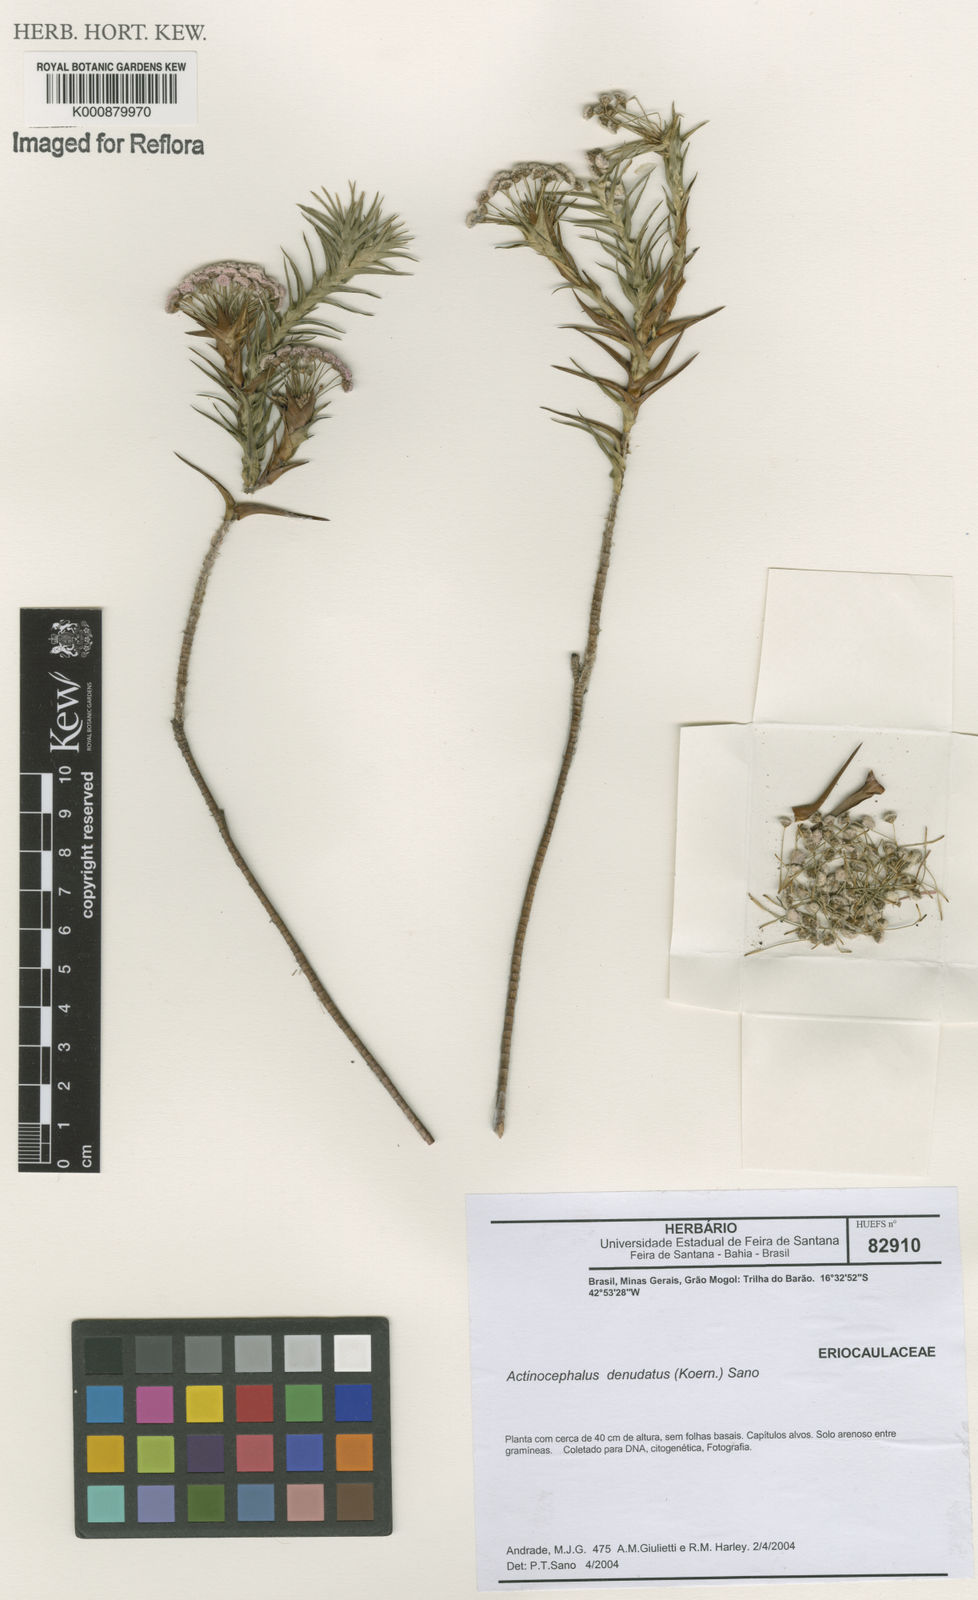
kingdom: Plantae
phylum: Tracheophyta
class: Liliopsida
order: Poales
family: Eriocaulaceae
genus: Paepalanthus
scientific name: Paepalanthus
